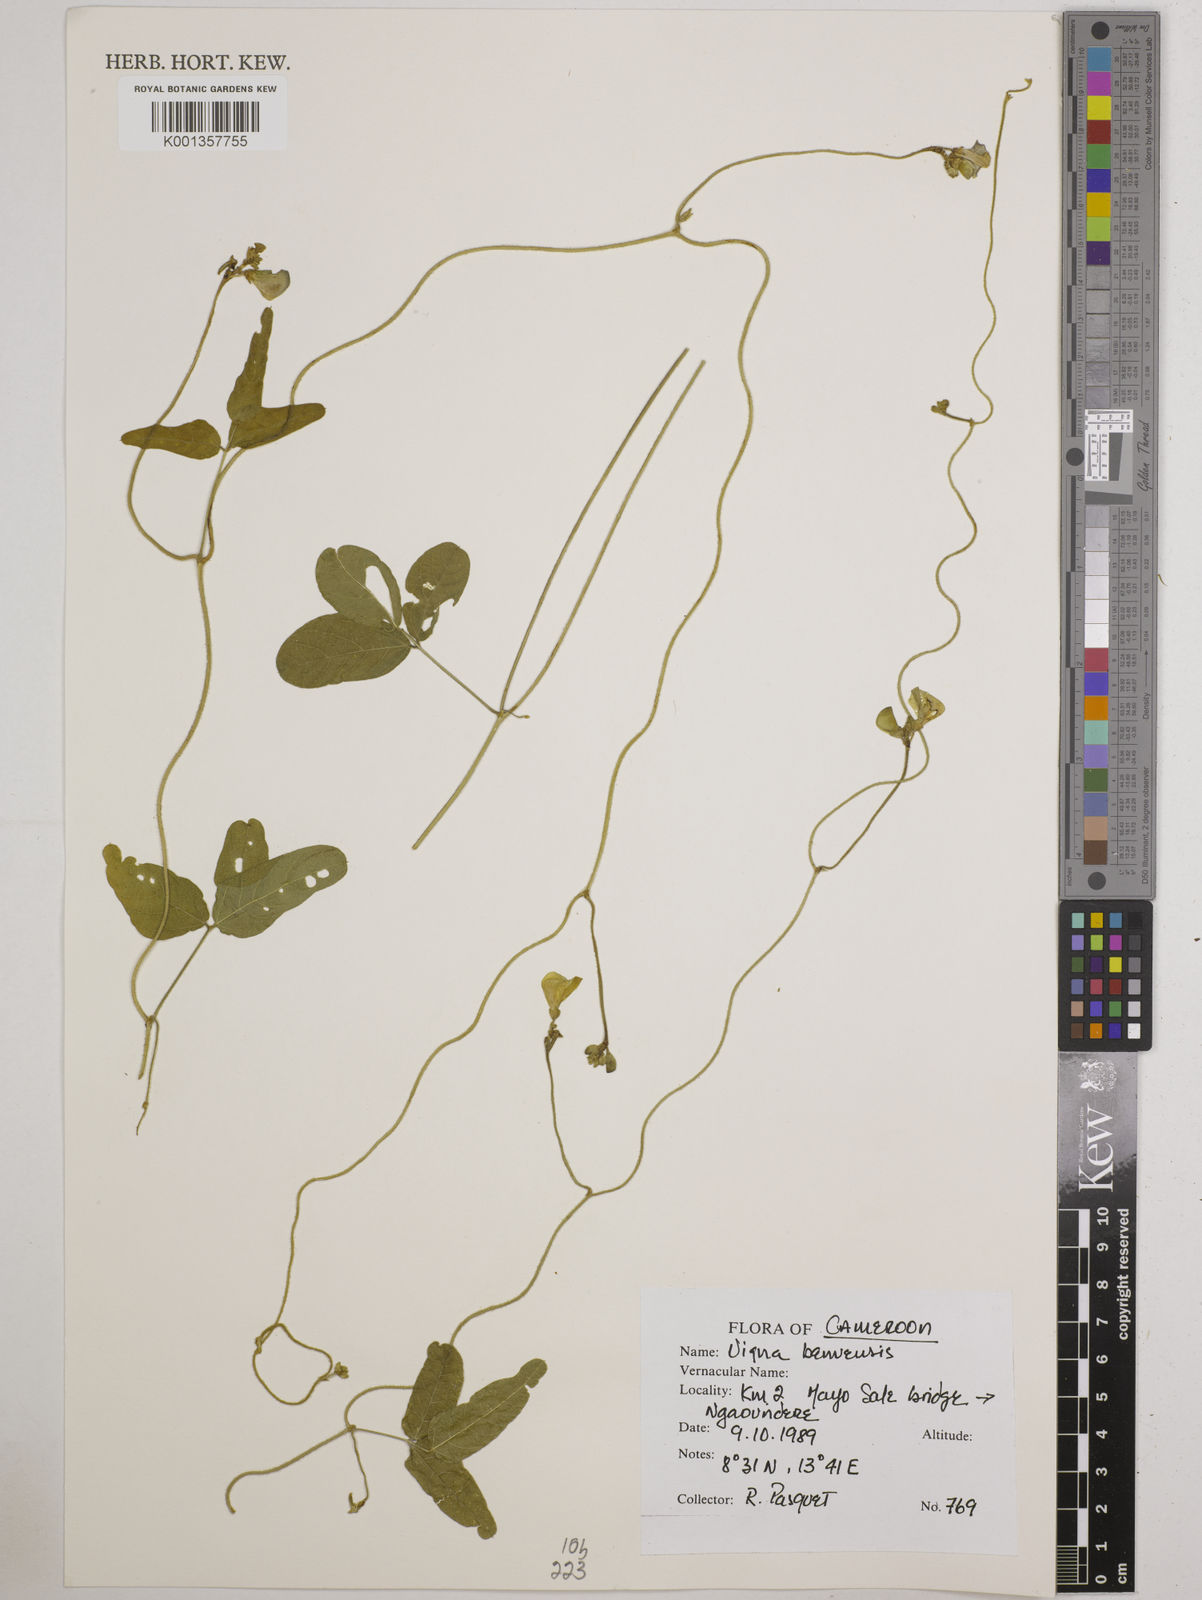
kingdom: Plantae
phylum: Tracheophyta
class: Magnoliopsida
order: Fabales
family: Fabaceae
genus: Vigna
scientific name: Vigna pubigera
